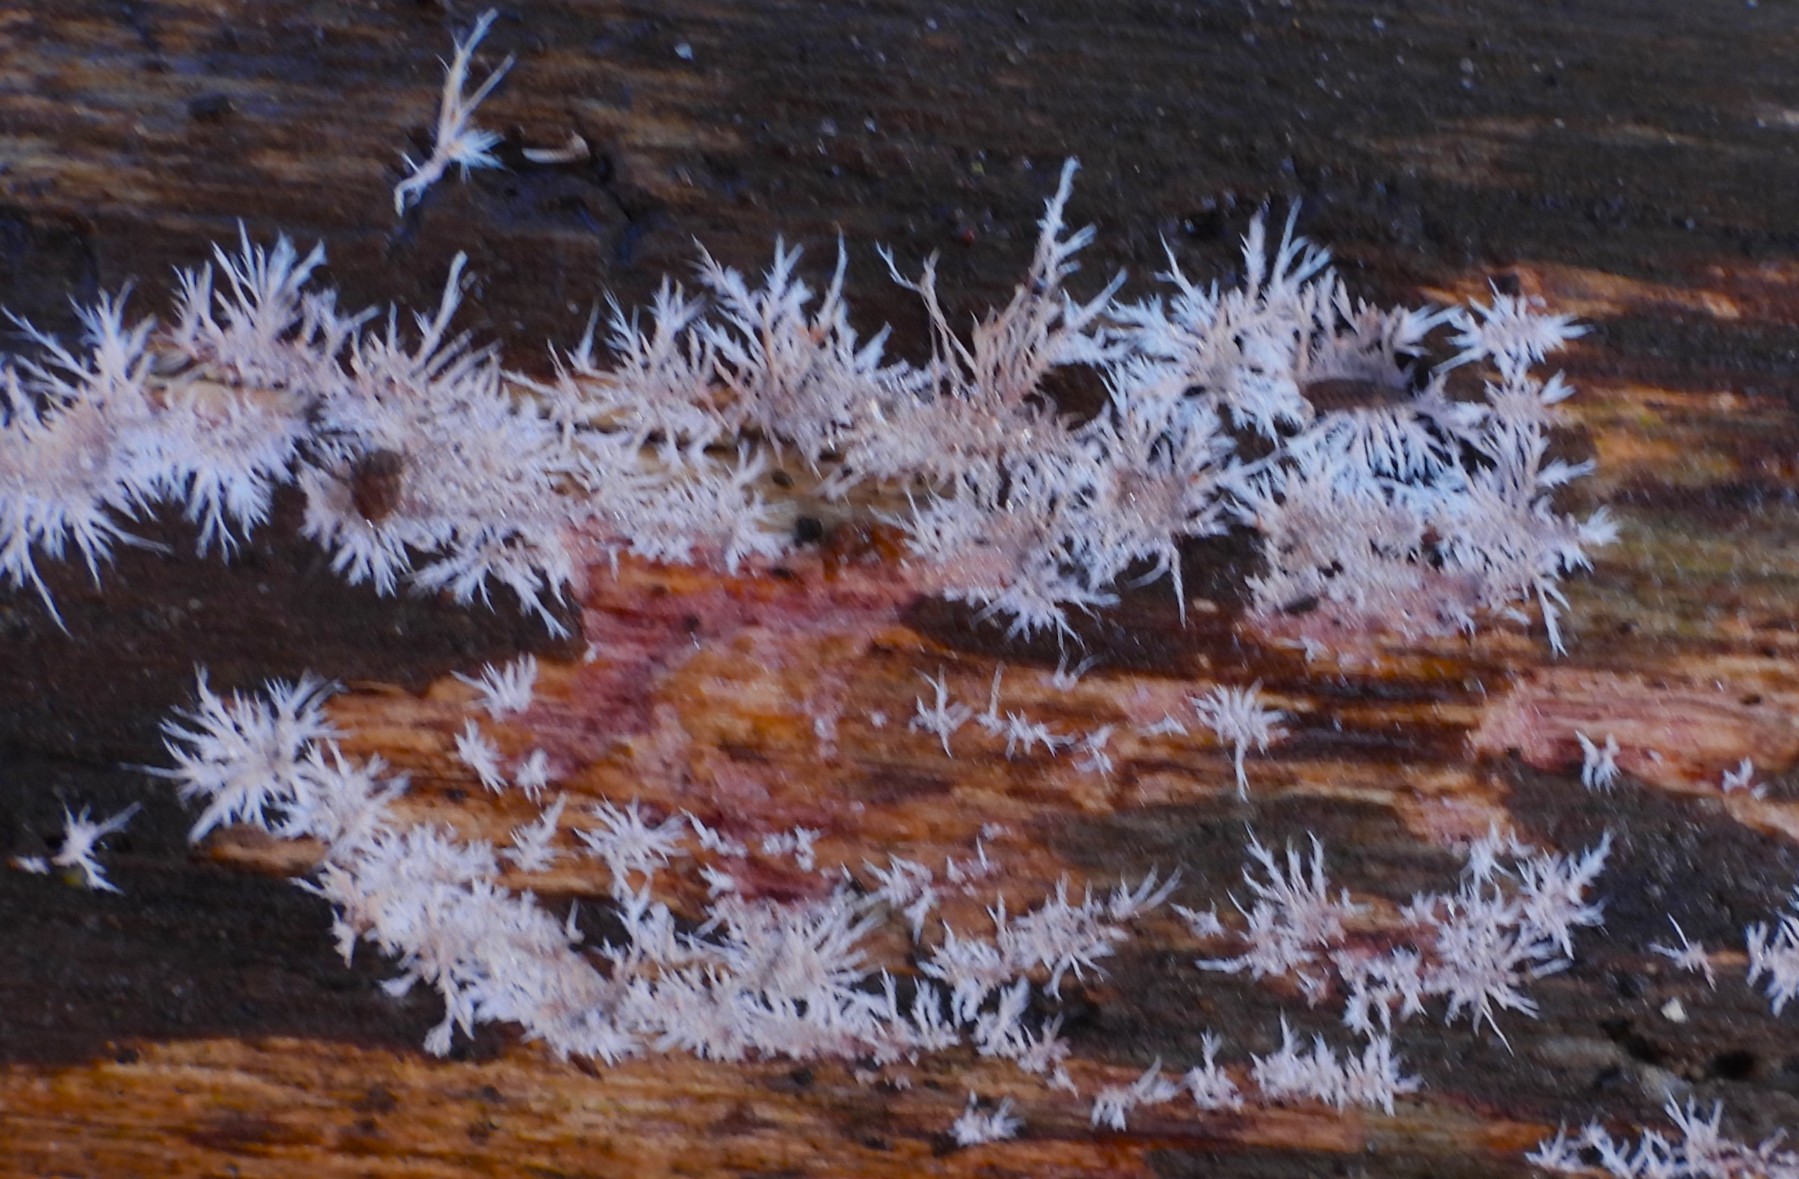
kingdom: Fungi
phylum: Basidiomycota
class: Agaricomycetes
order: Polyporales
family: Steccherinaceae
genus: Steccherinum
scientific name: Steccherinum fimbriatum
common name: trådet skønpig
